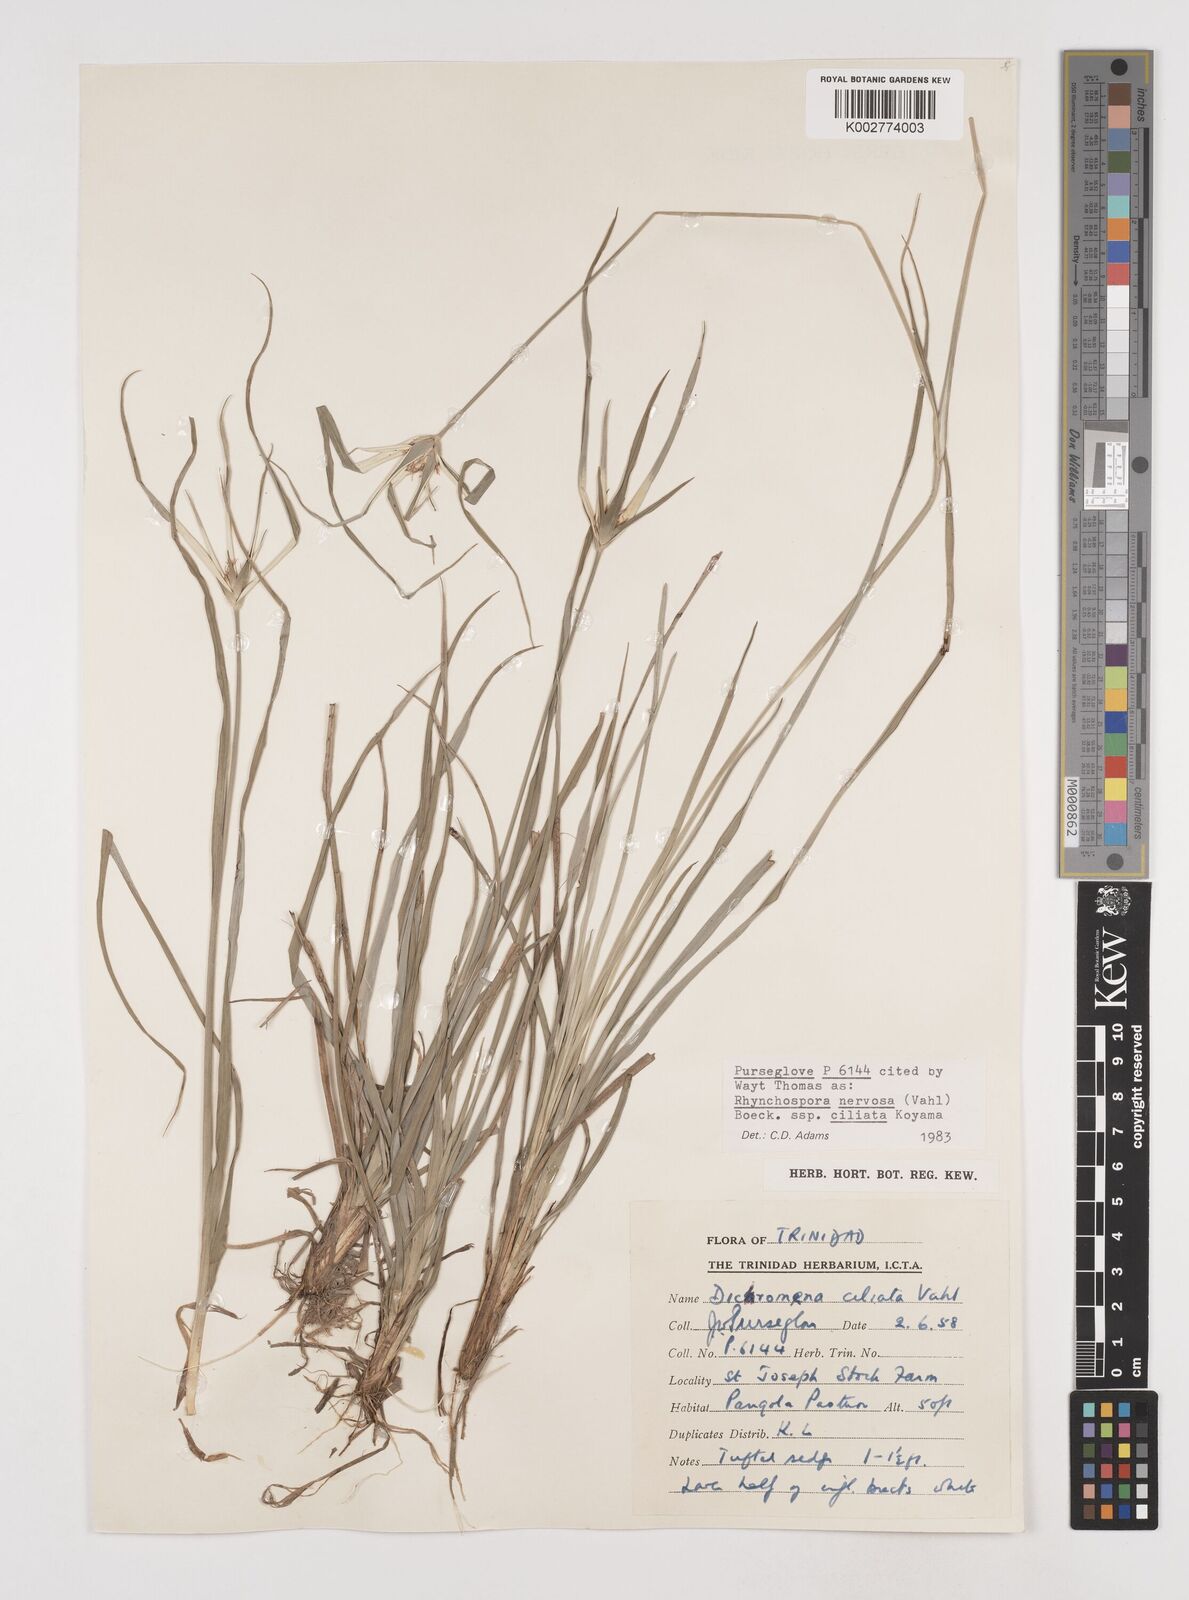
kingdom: Plantae
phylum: Tracheophyta
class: Liliopsida
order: Poales
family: Cyperaceae
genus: Rhynchospora
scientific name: Rhynchospora pura
